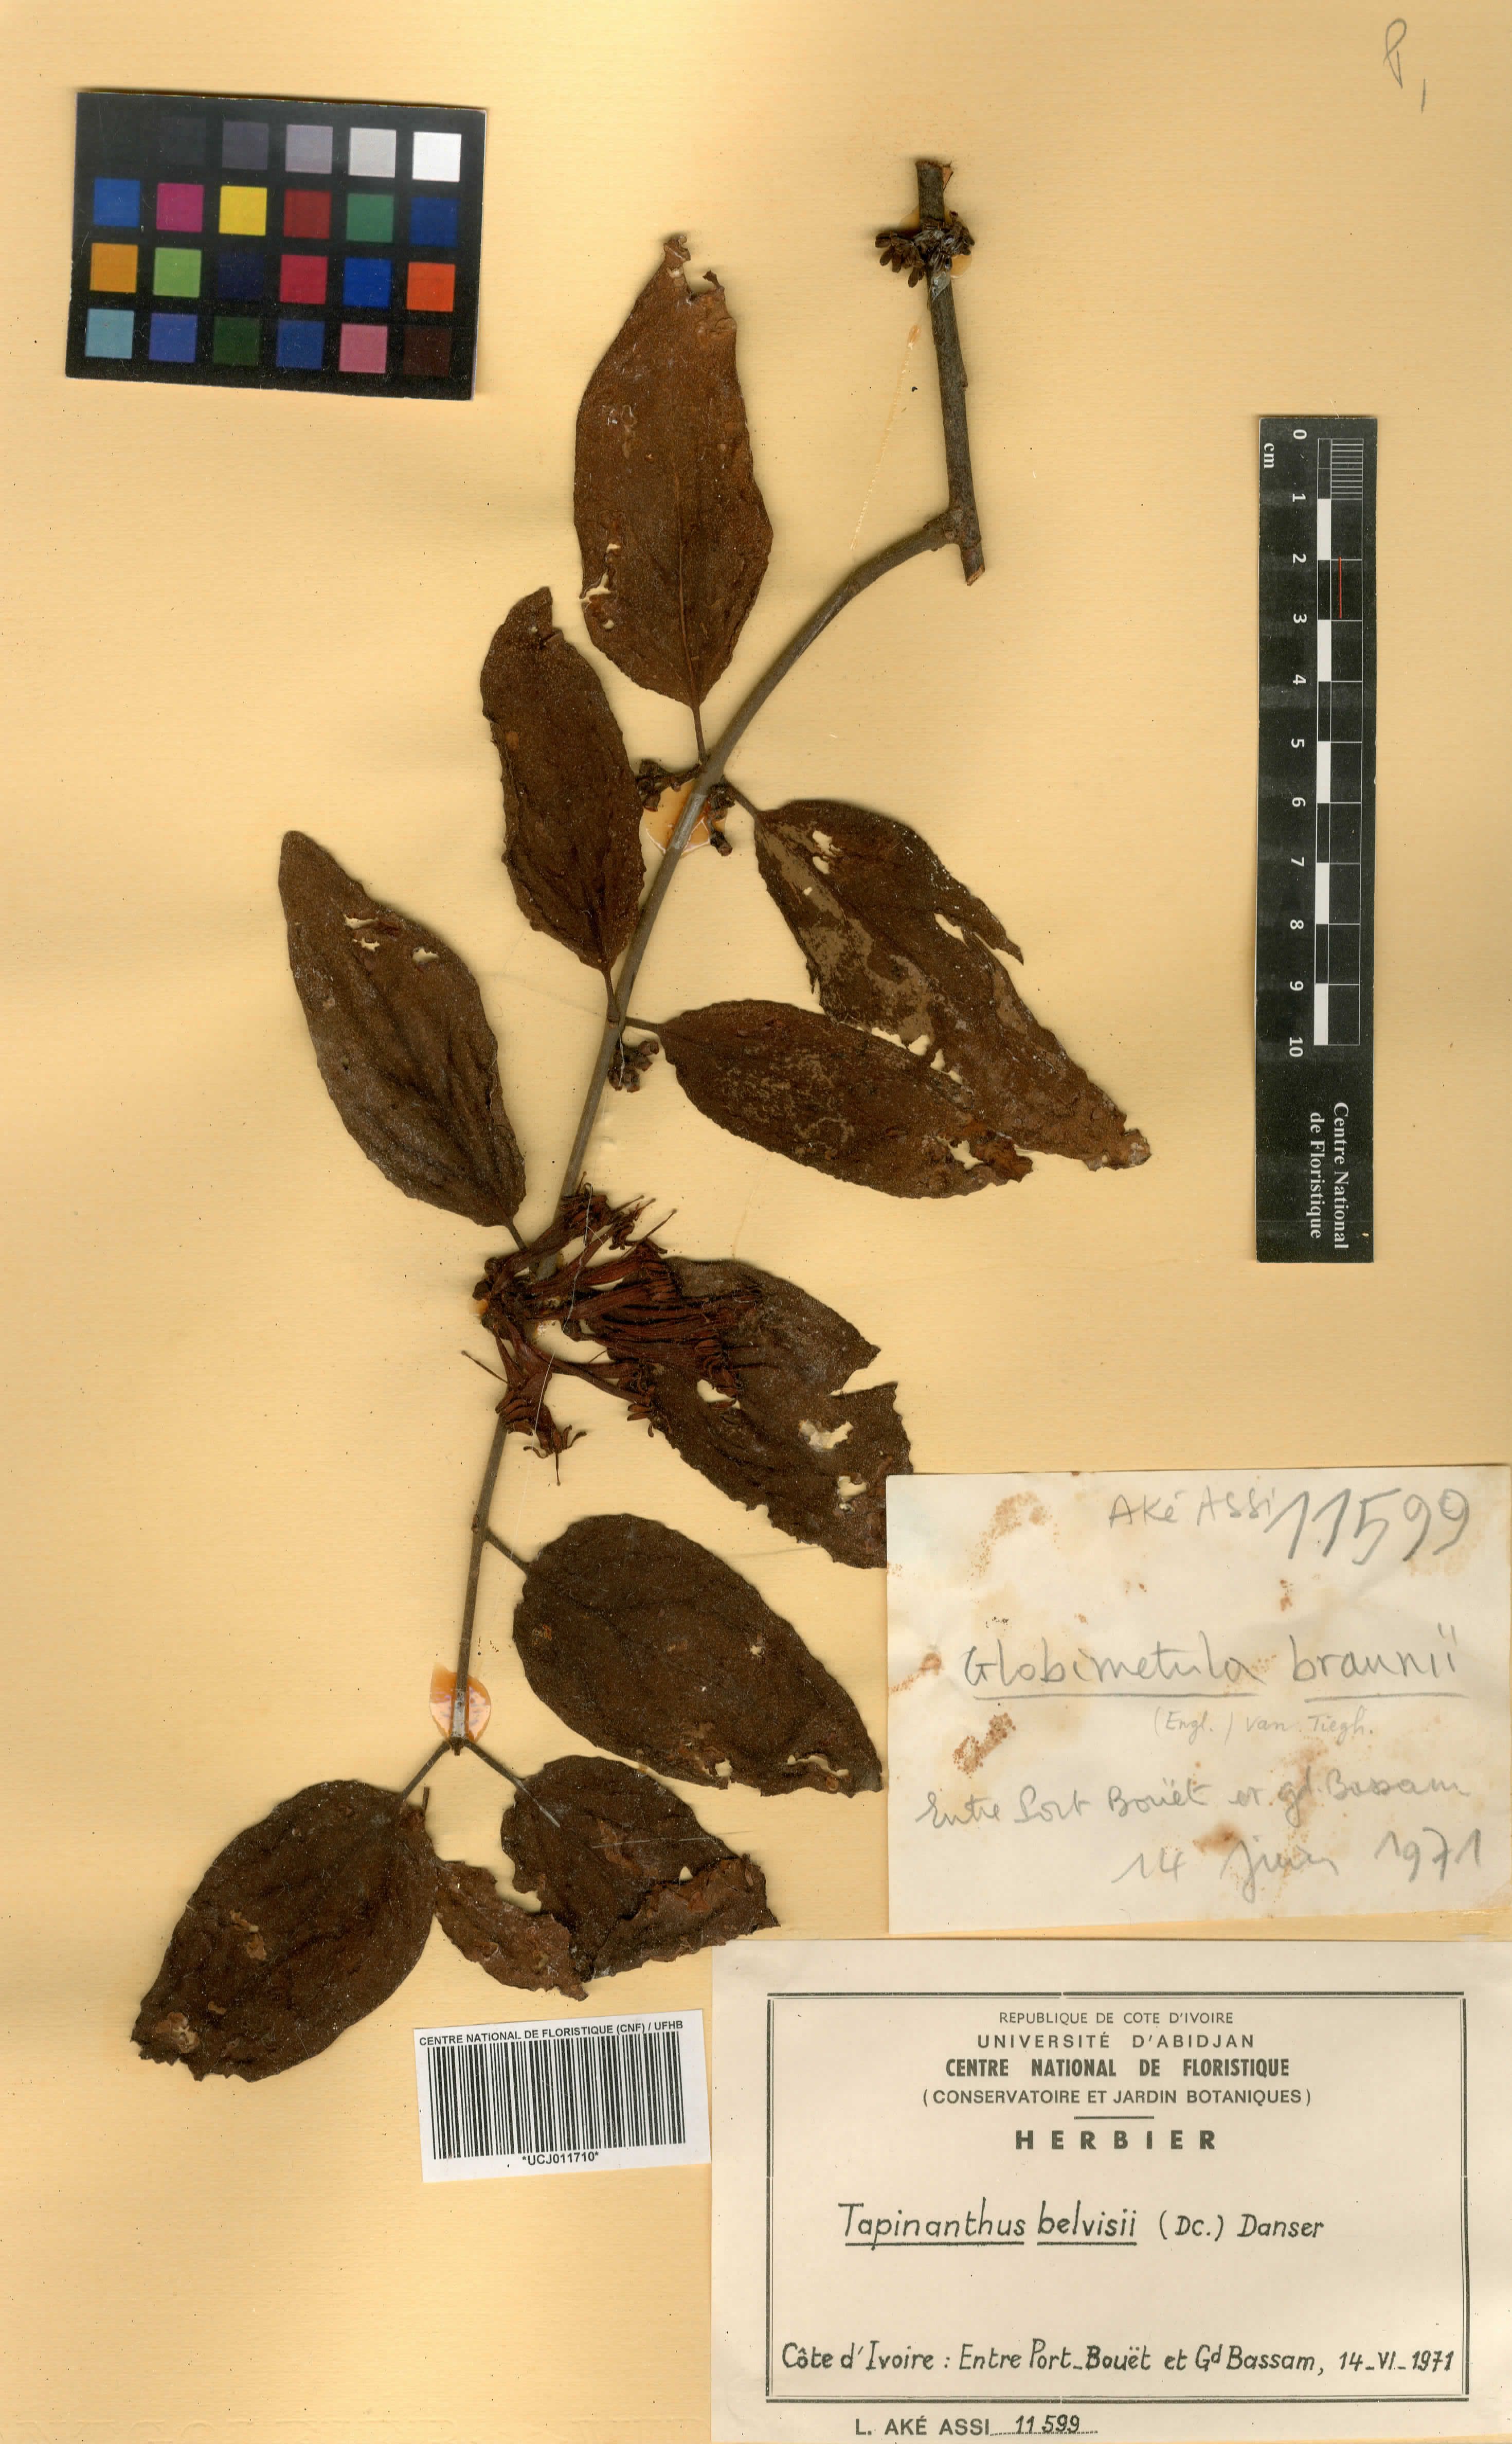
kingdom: Plantae
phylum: Tracheophyta
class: Magnoliopsida
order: Santalales
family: Loranthaceae
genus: Tapinanthus
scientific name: Tapinanthus belvisii
